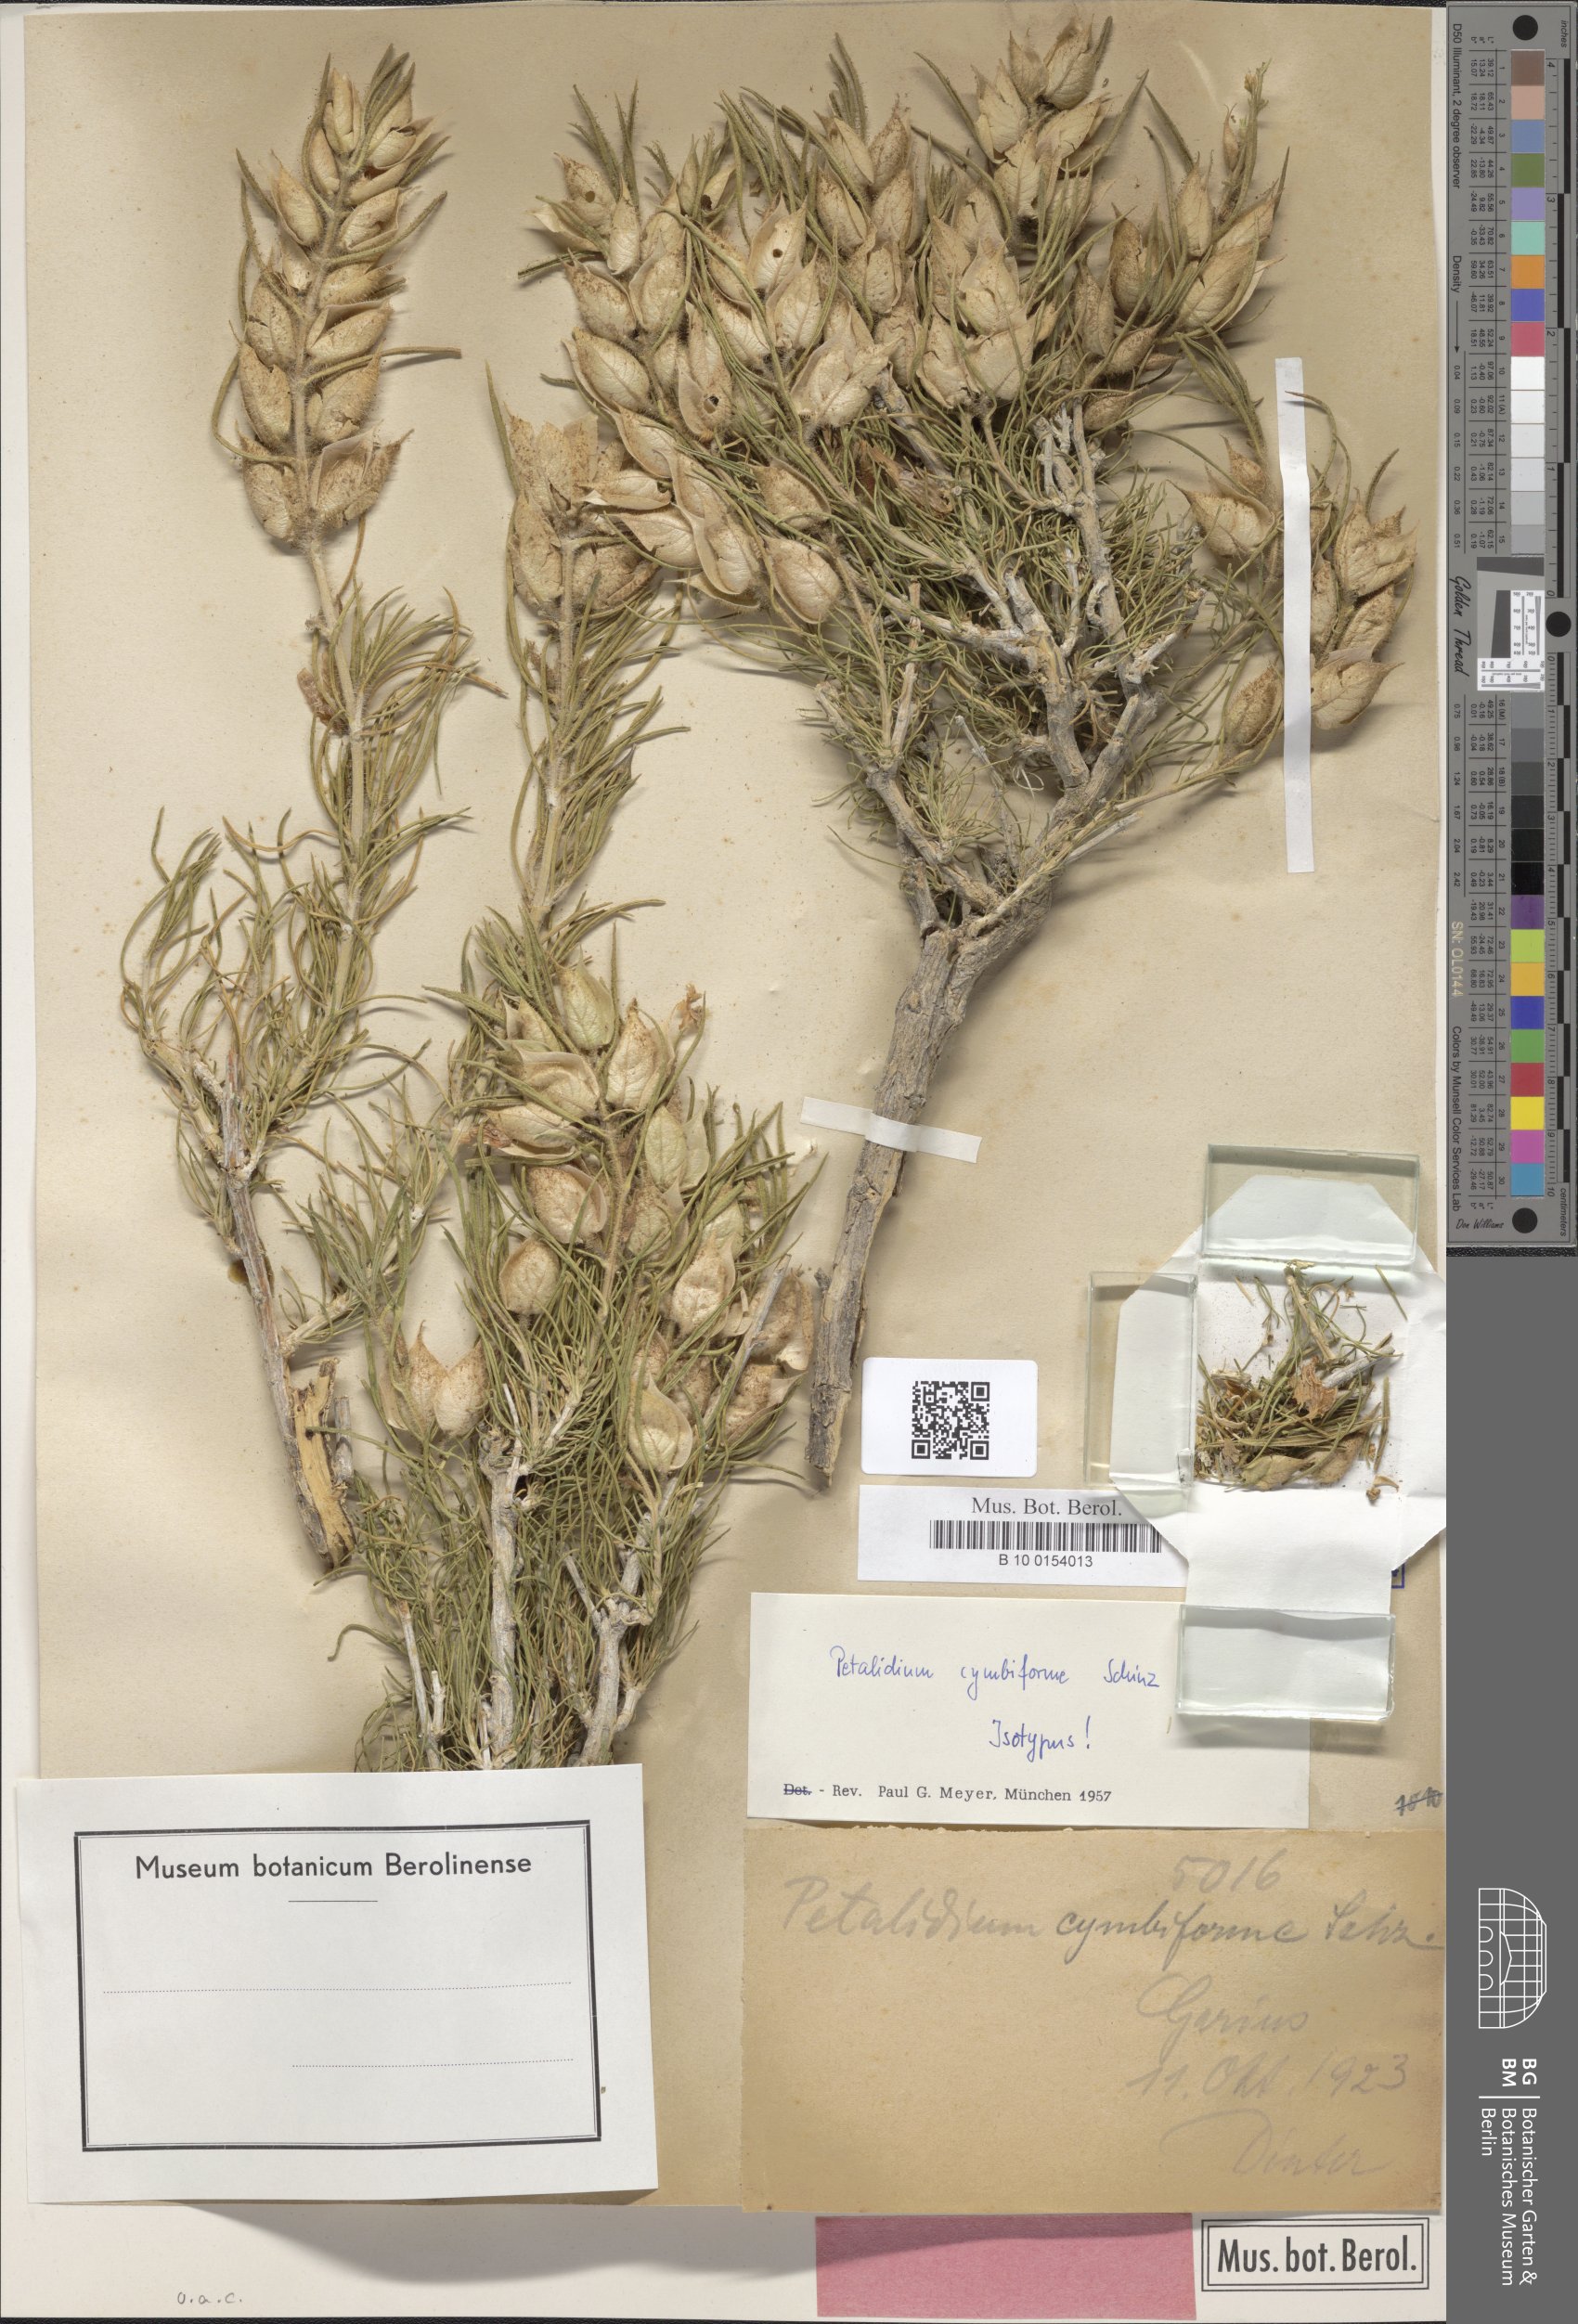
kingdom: Plantae
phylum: Tracheophyta
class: Magnoliopsida
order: Lamiales
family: Acanthaceae
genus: Petalidium
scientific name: Petalidium cymbiforme
